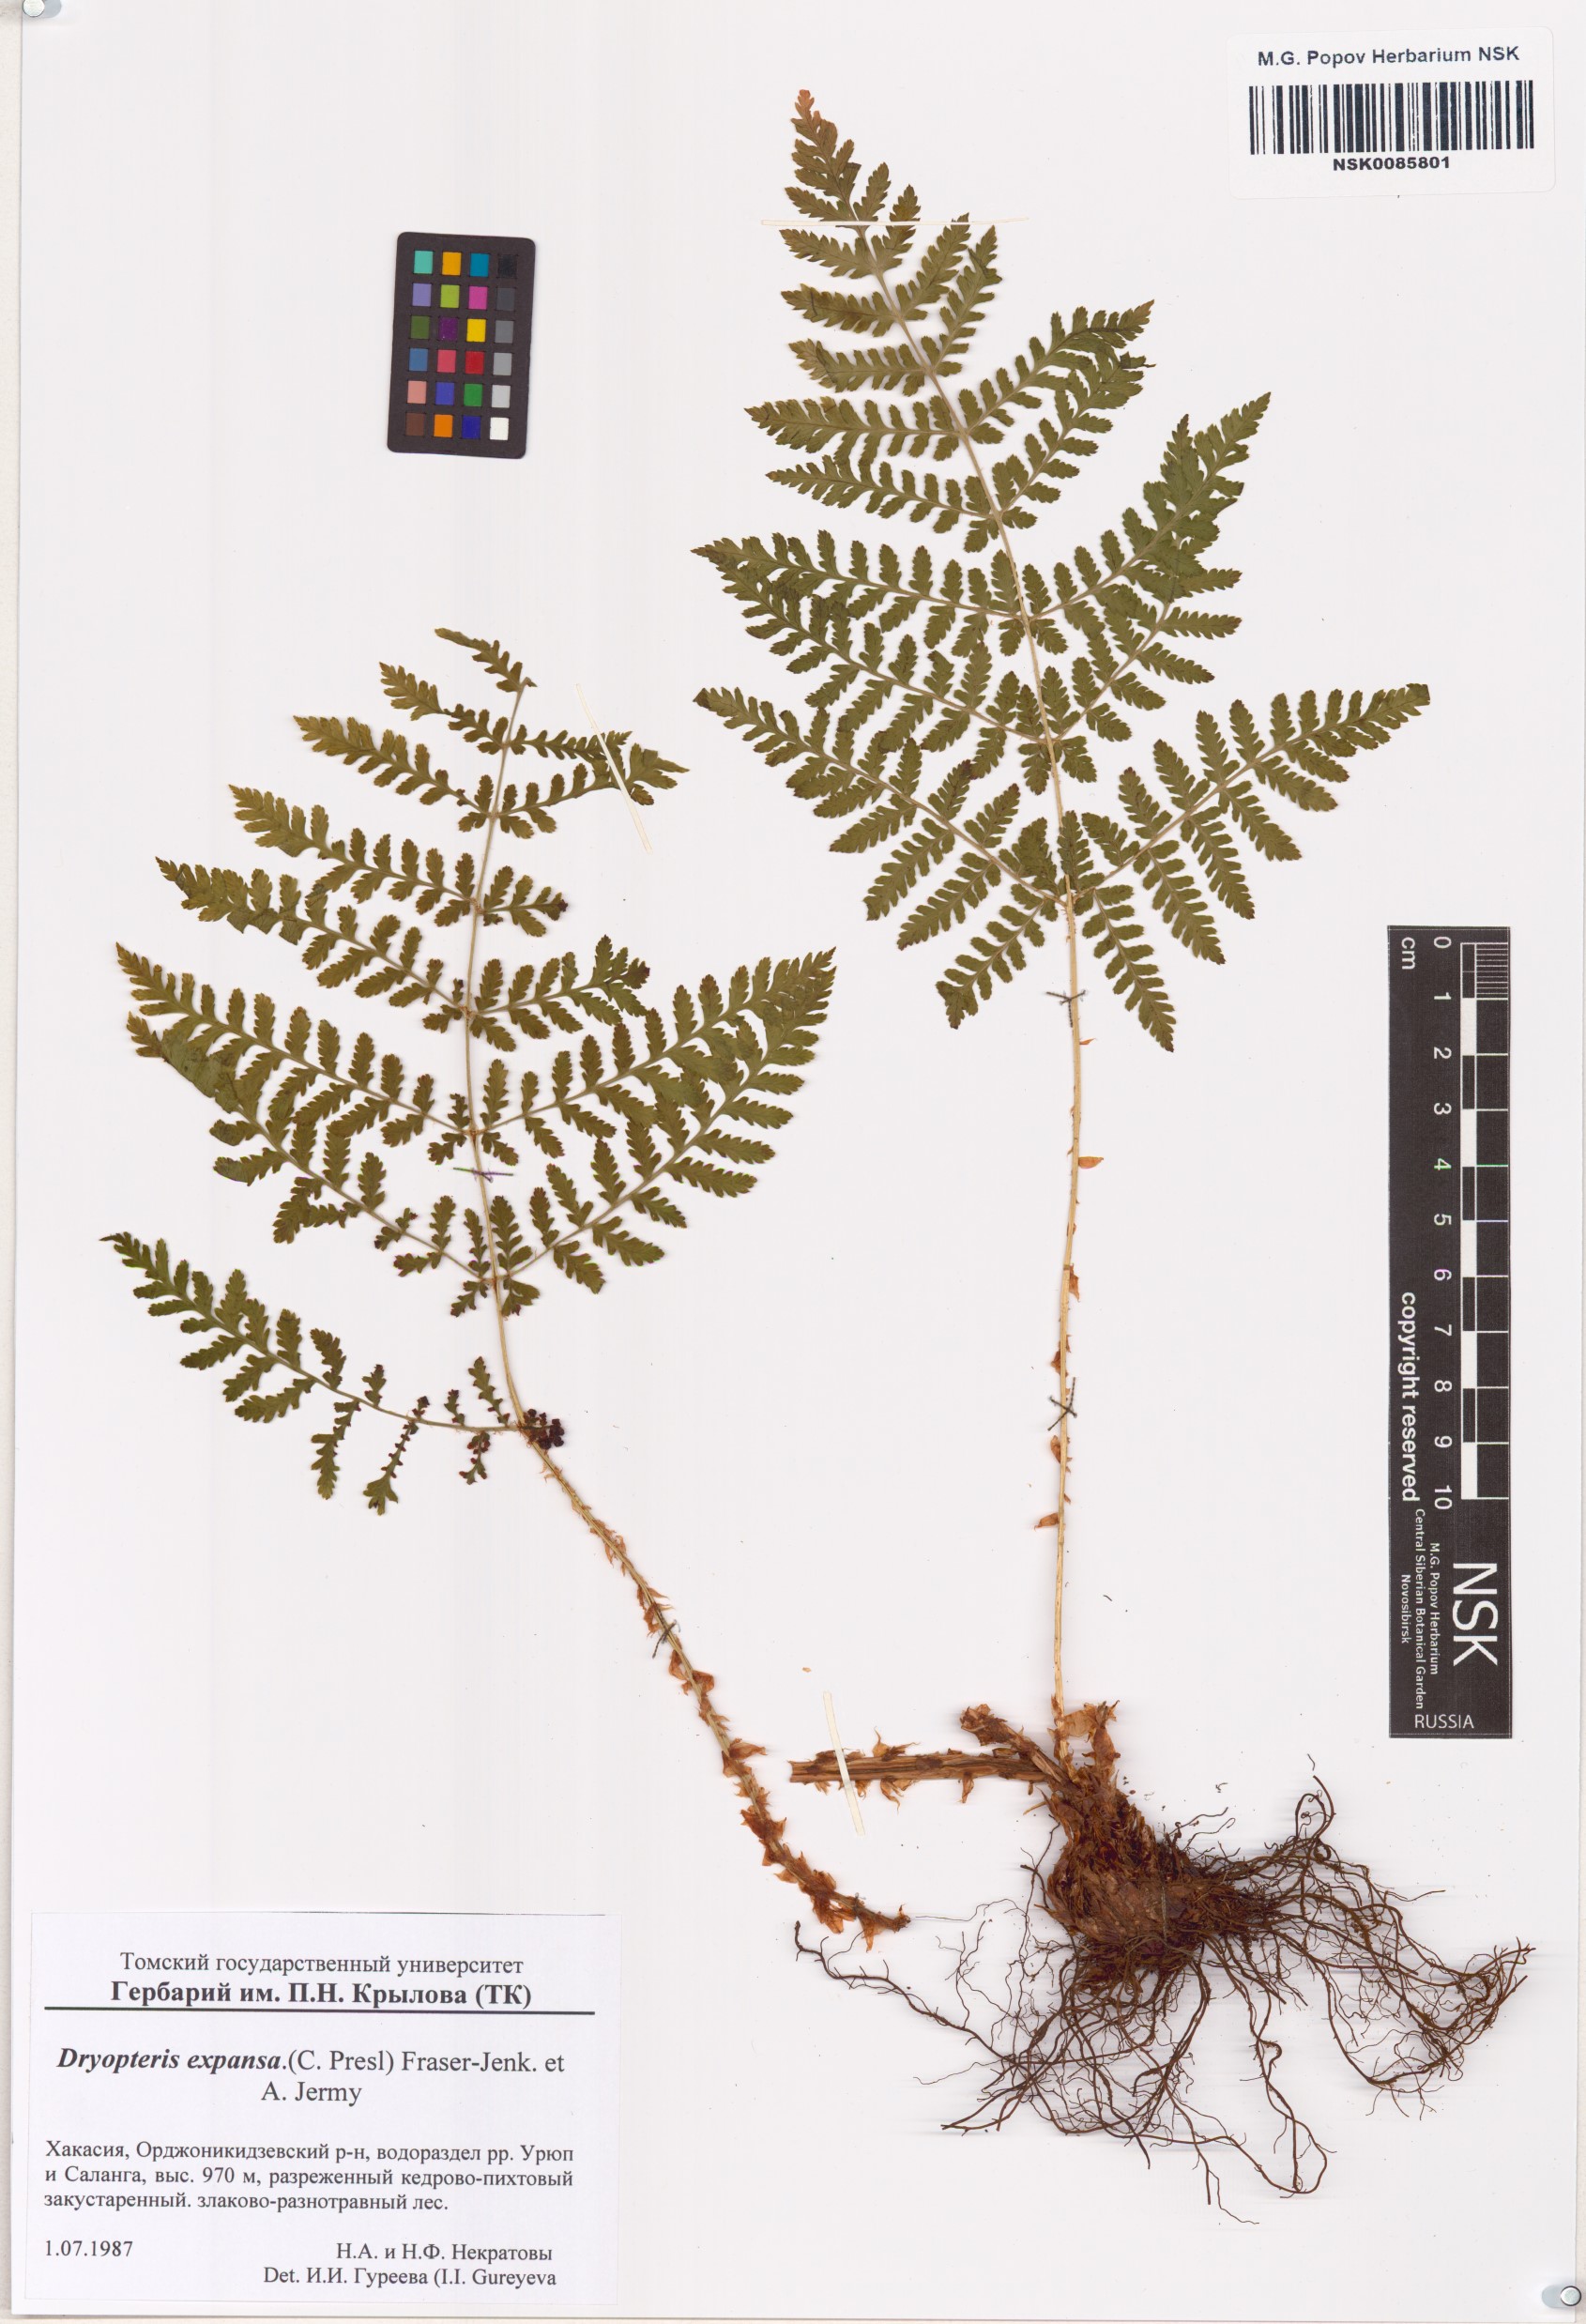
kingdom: Plantae
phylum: Tracheophyta
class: Polypodiopsida
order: Polypodiales
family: Dryopteridaceae
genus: Dryopteris
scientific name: Dryopteris expansa
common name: Northern buckler fern
